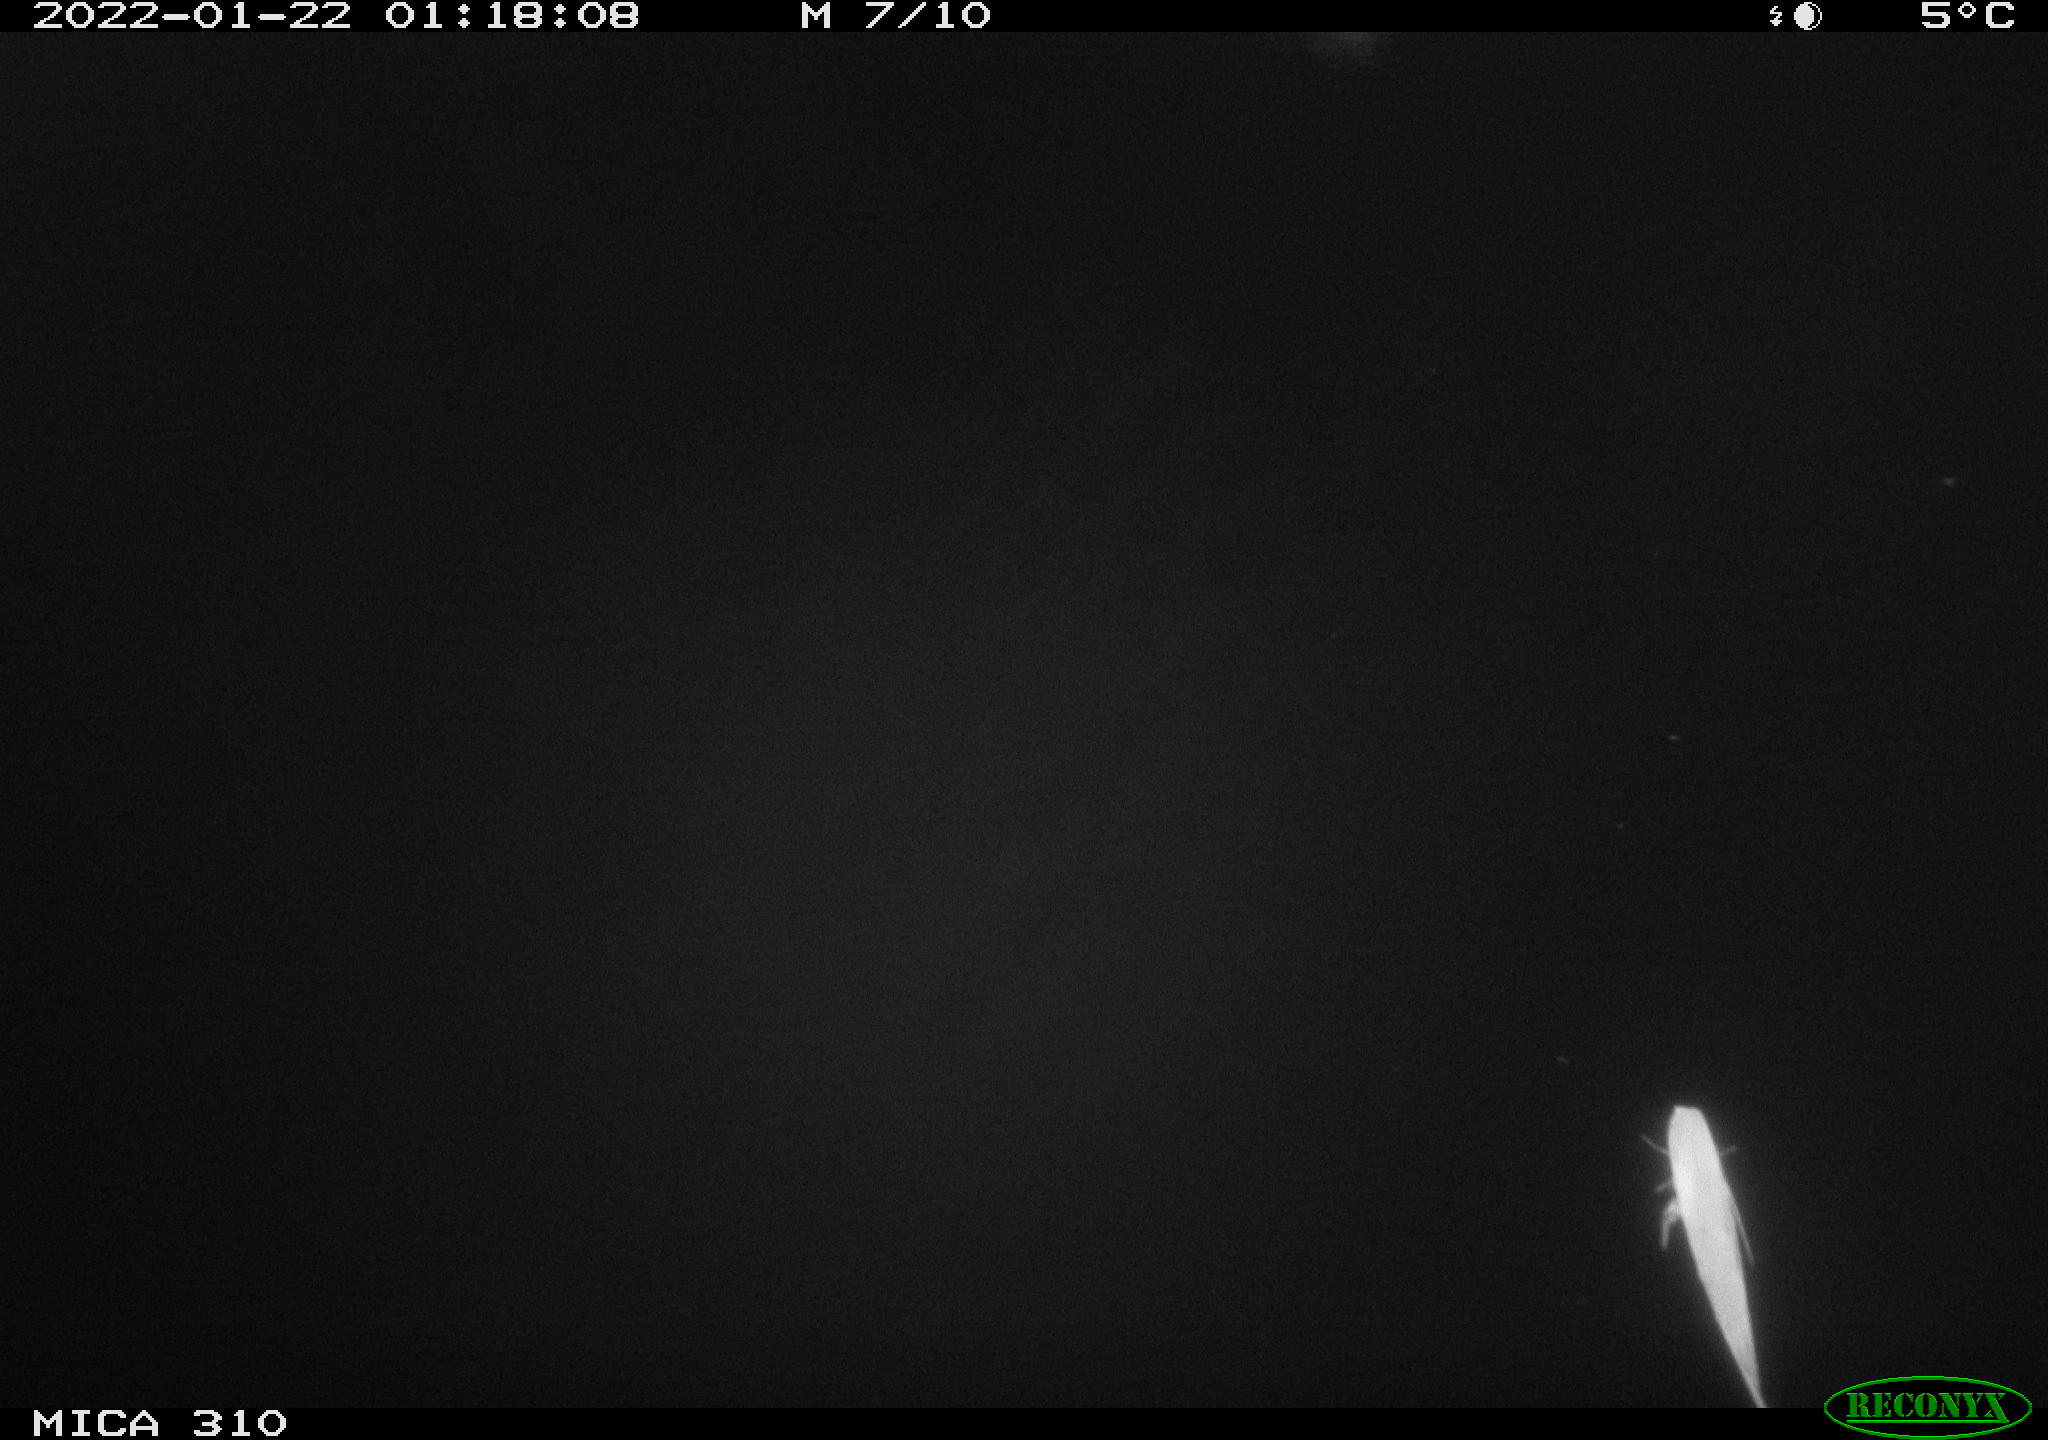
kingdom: Animalia
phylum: Chordata
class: Aves
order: Anseriformes
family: Anatidae
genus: Anas
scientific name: Anas
